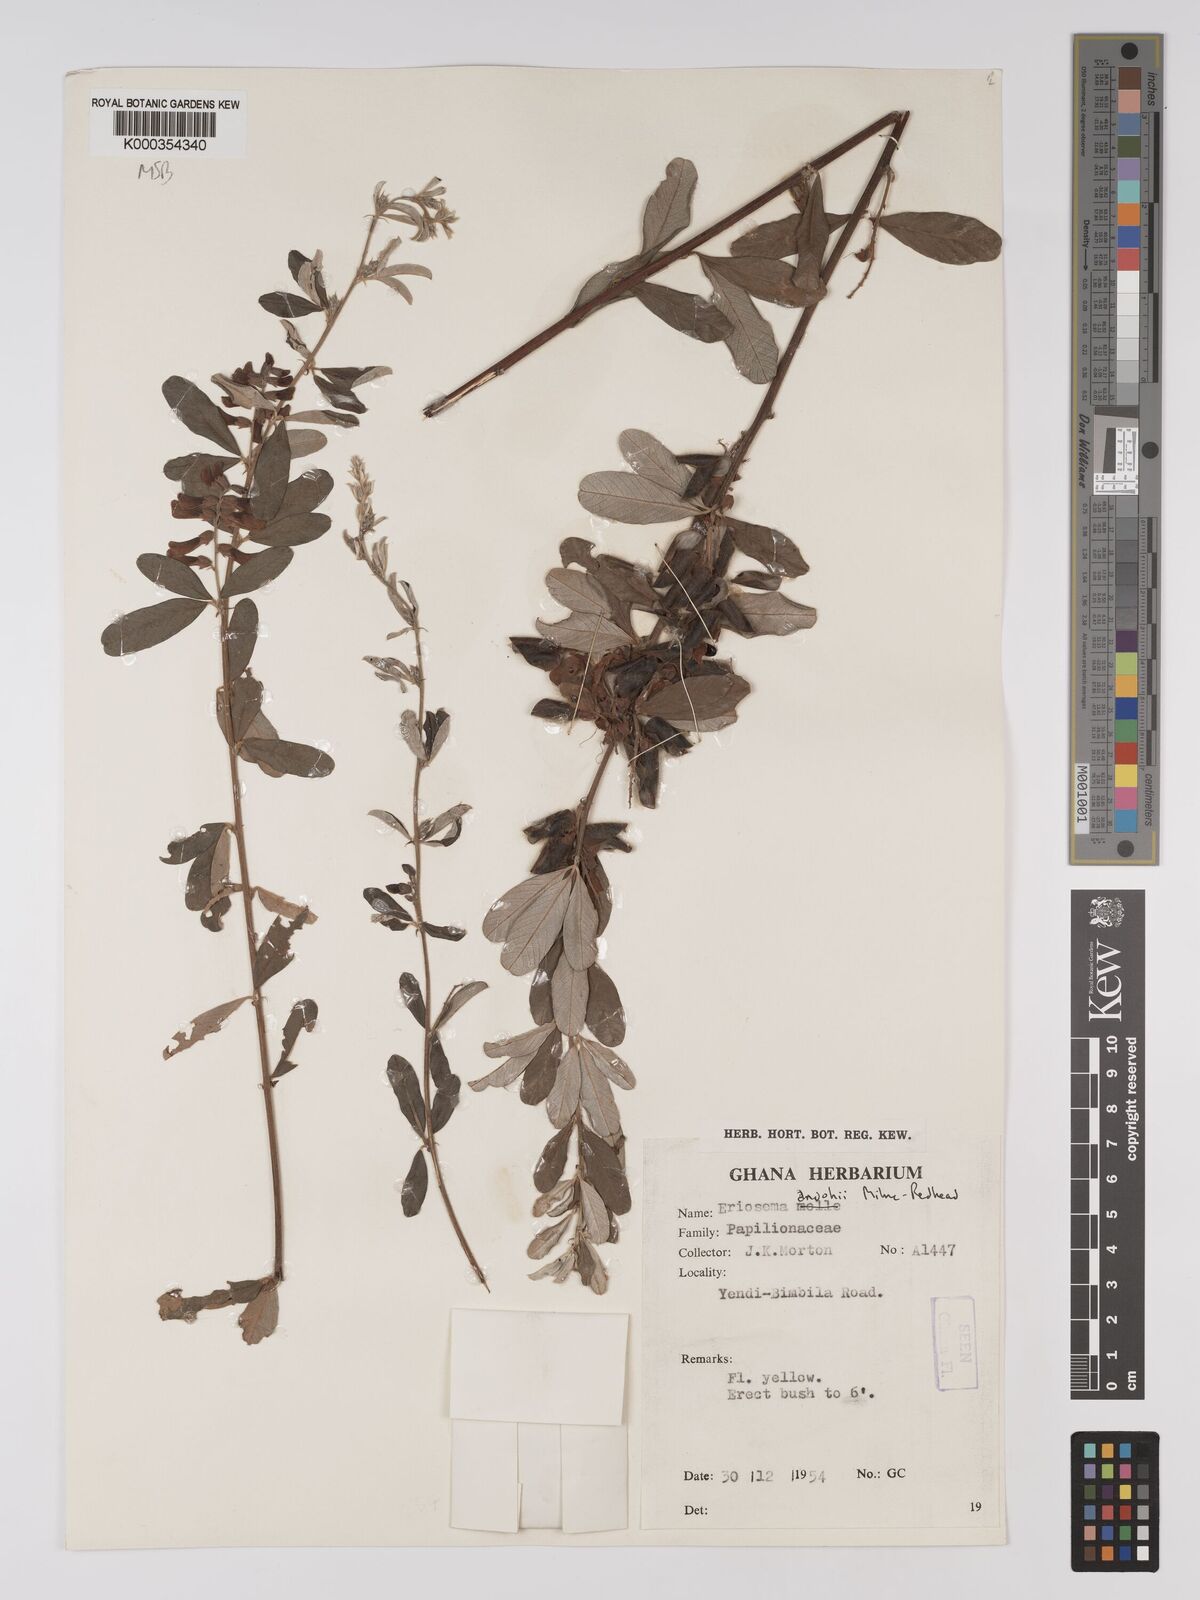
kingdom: Plantae
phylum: Tracheophyta
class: Magnoliopsida
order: Fabales
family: Fabaceae
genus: Eriosema
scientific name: Eriosema andohii
